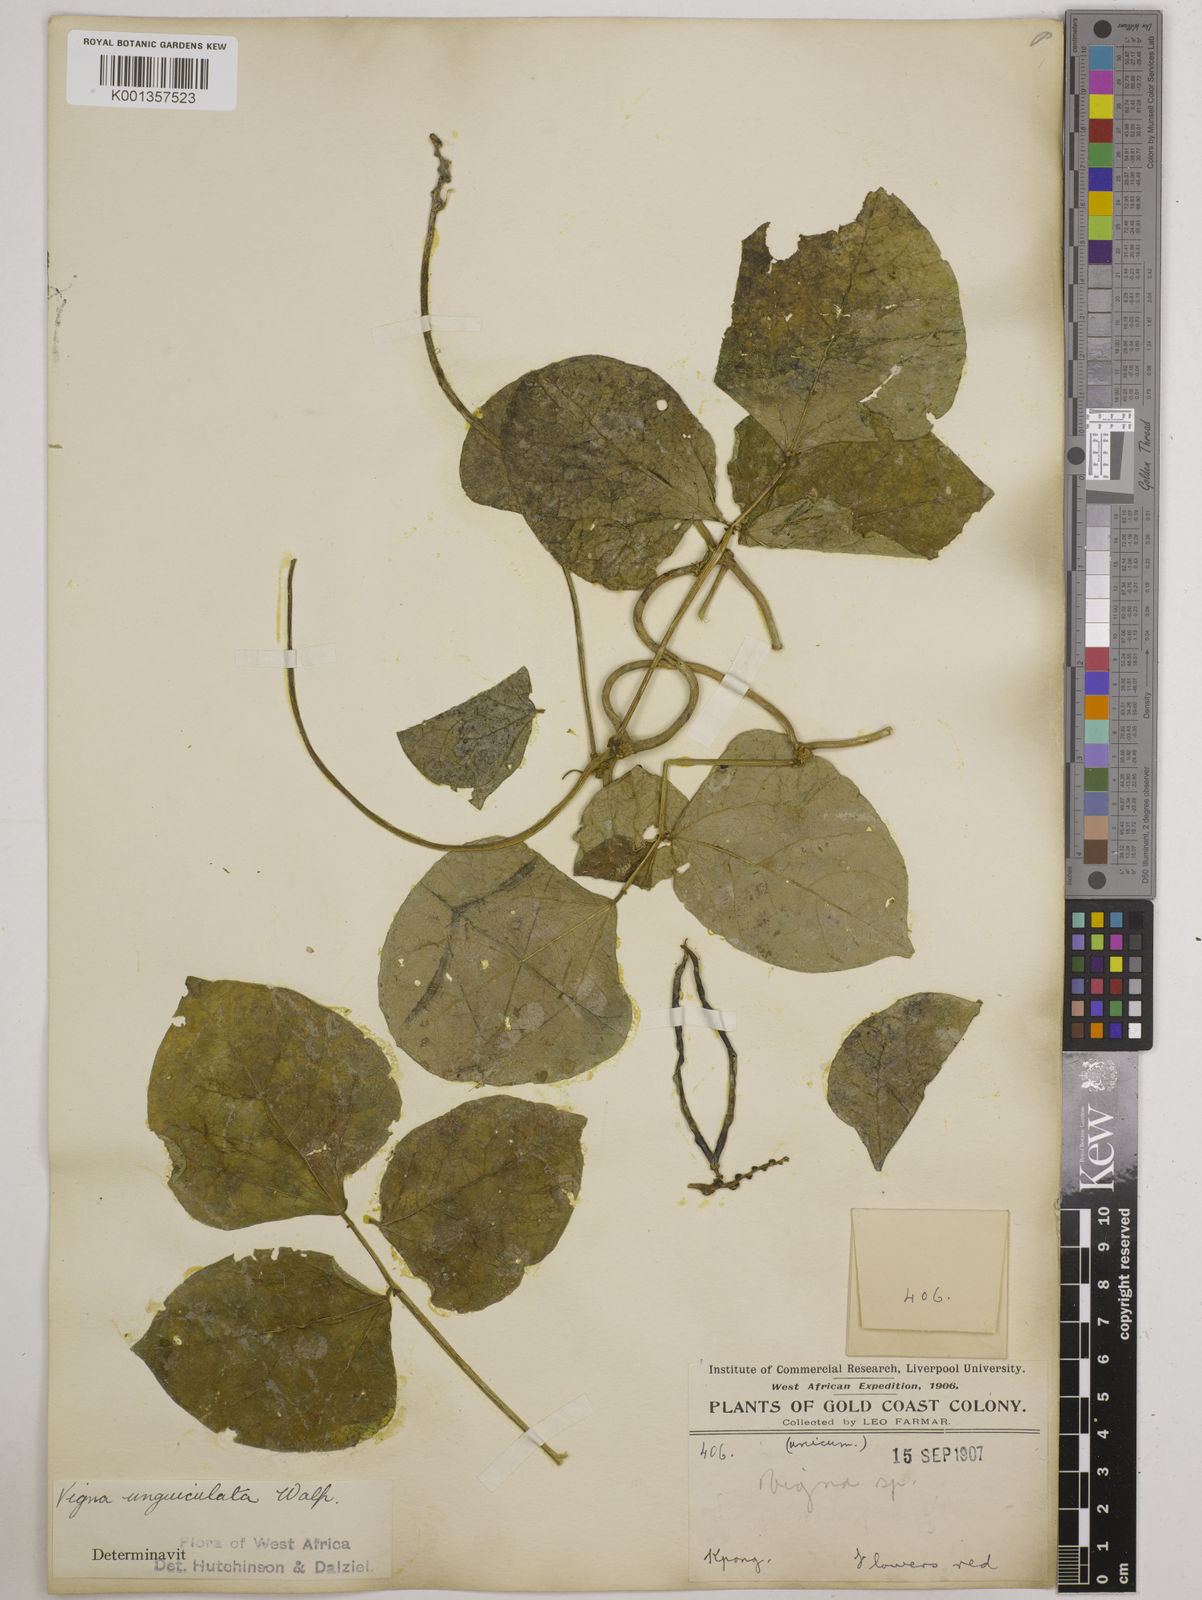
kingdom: Plantae
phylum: Tracheophyta
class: Magnoliopsida
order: Fabales
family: Fabaceae
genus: Vigna
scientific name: Vigna
